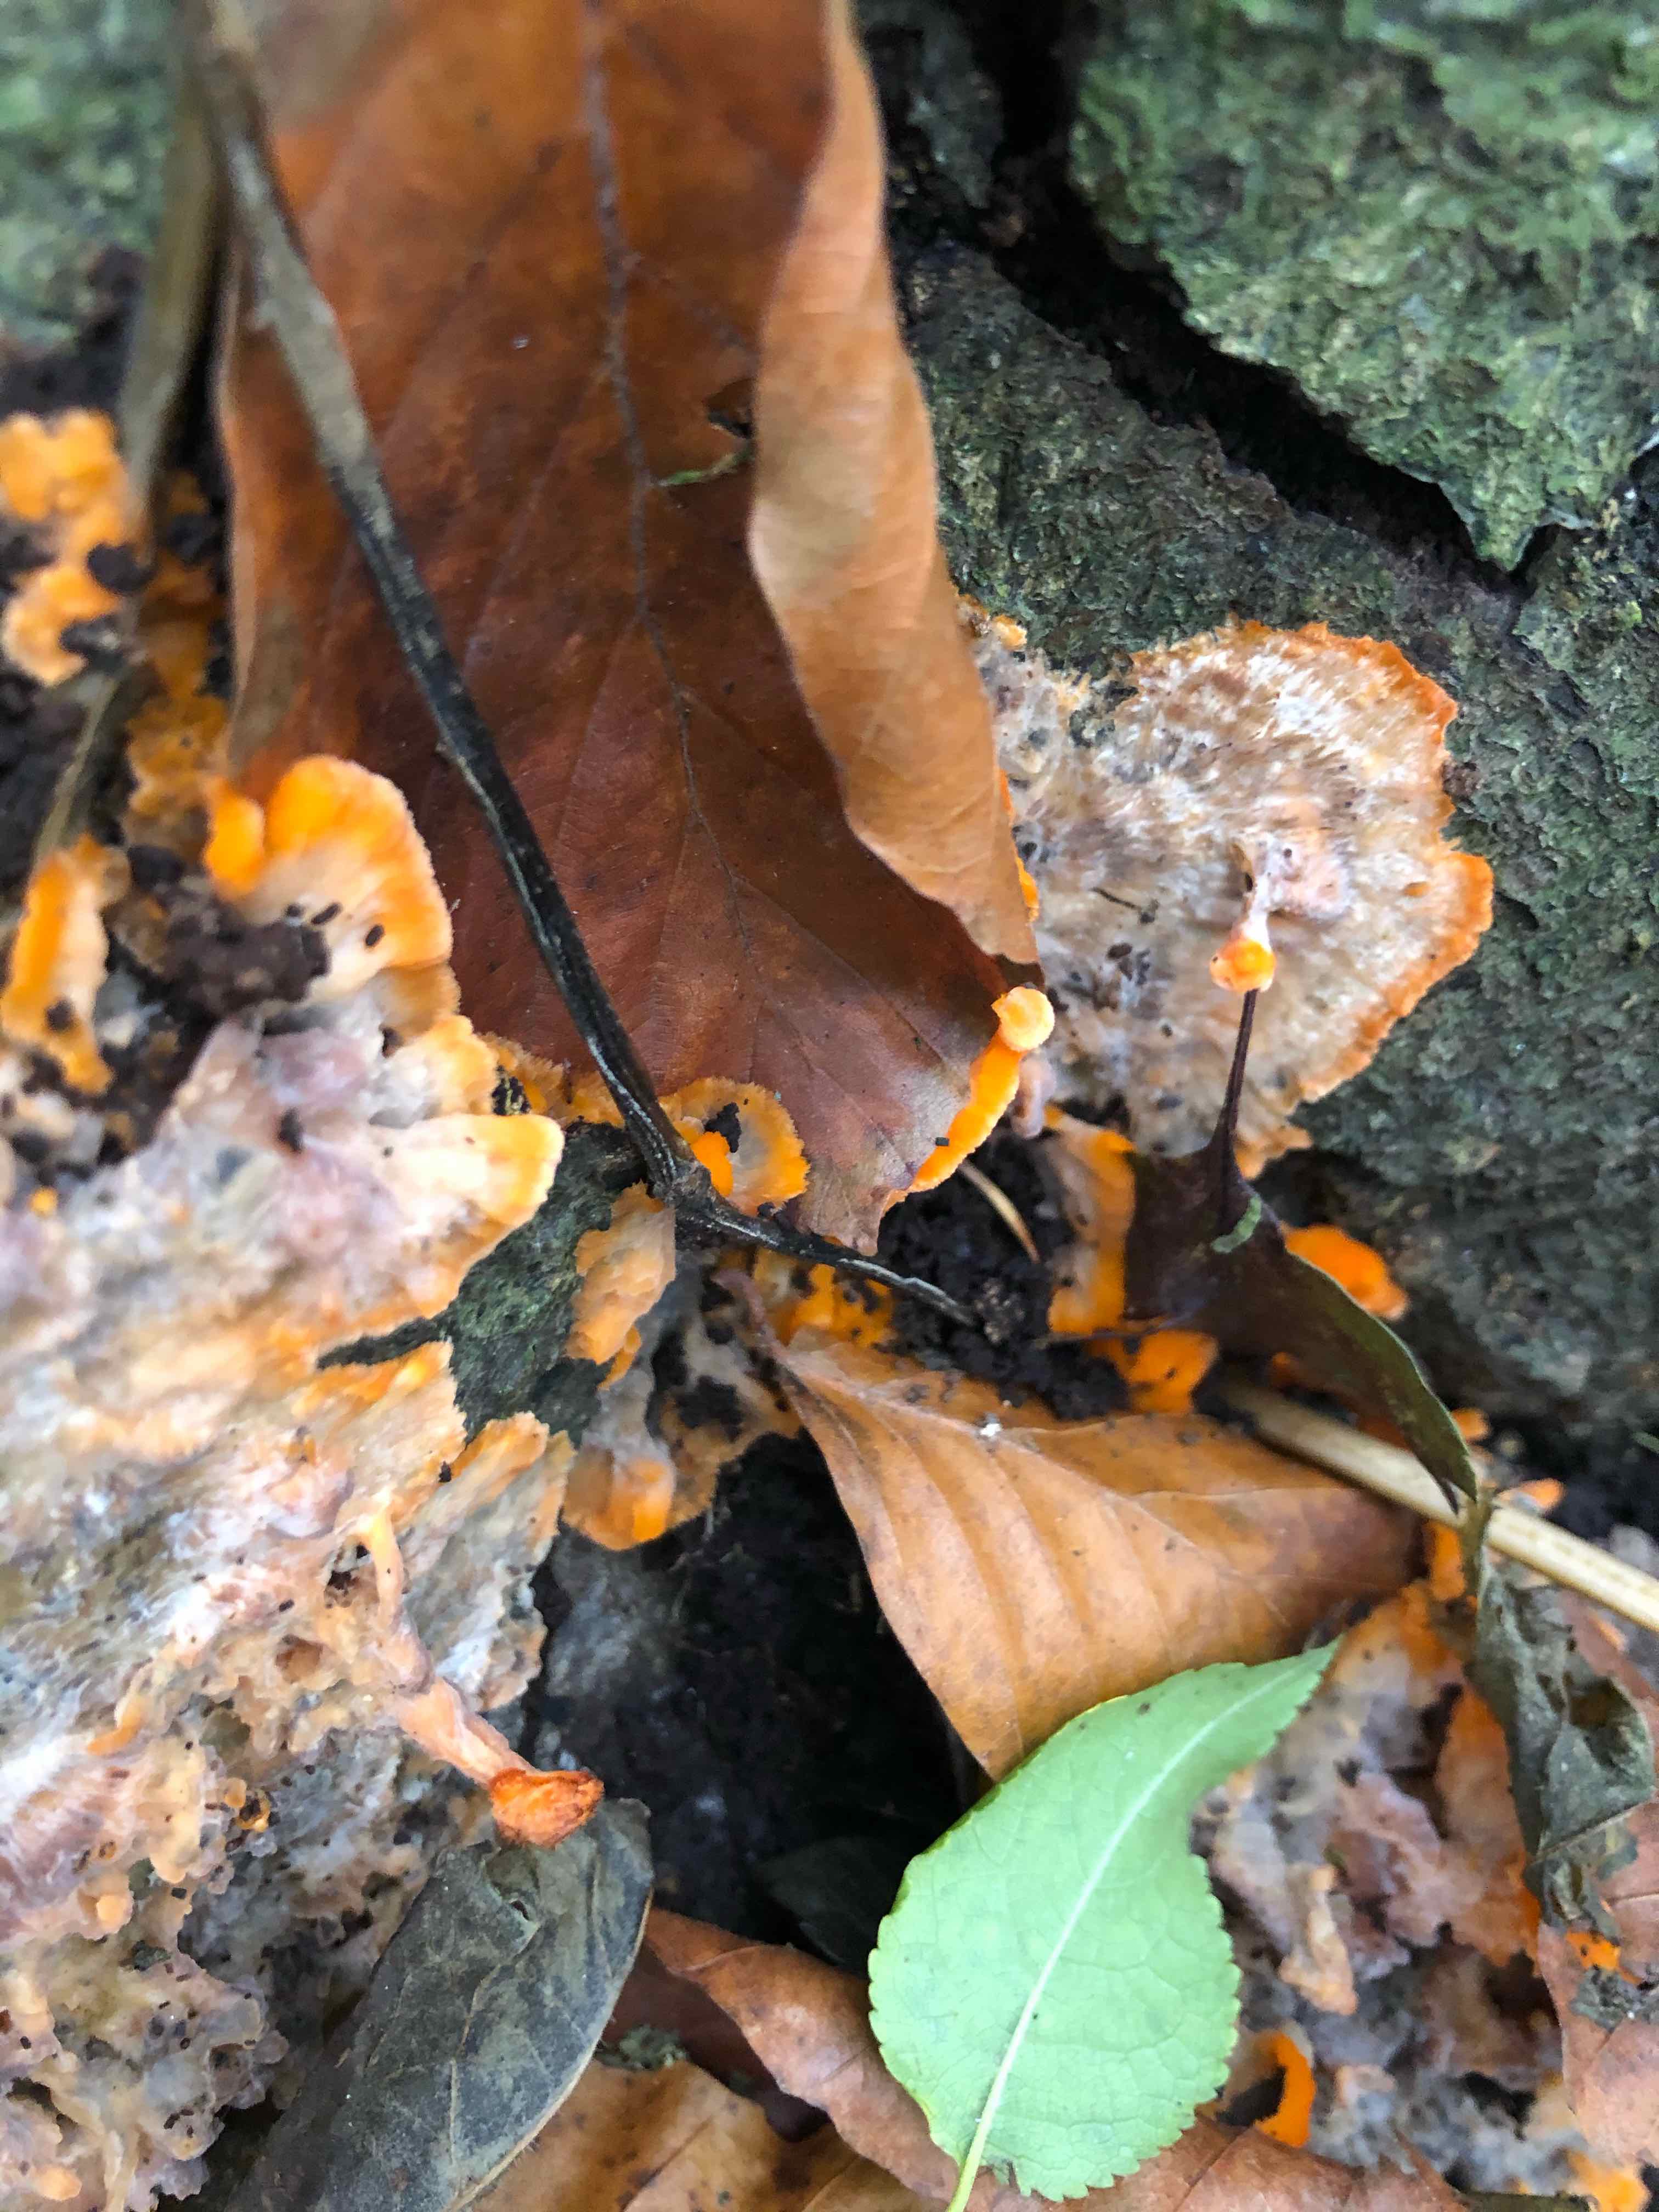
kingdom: Fungi
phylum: Basidiomycota
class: Agaricomycetes
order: Polyporales
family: Meruliaceae
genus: Phlebia
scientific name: Phlebia radiata
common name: stråle-åresvamp
